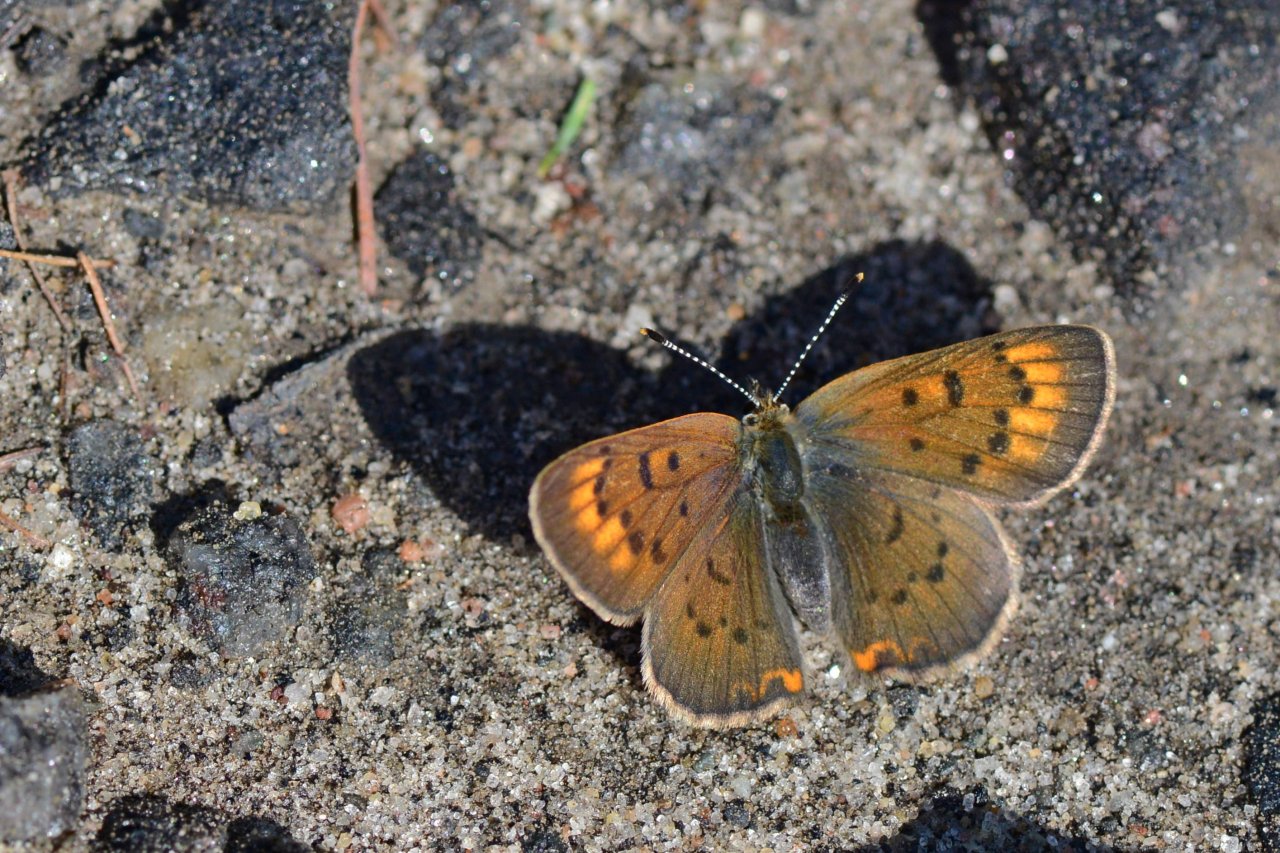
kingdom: Animalia
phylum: Arthropoda
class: Insecta
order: Lepidoptera
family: Lycaenidae
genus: Epidemia
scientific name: Epidemia dorcas
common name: Dorcas Copper
